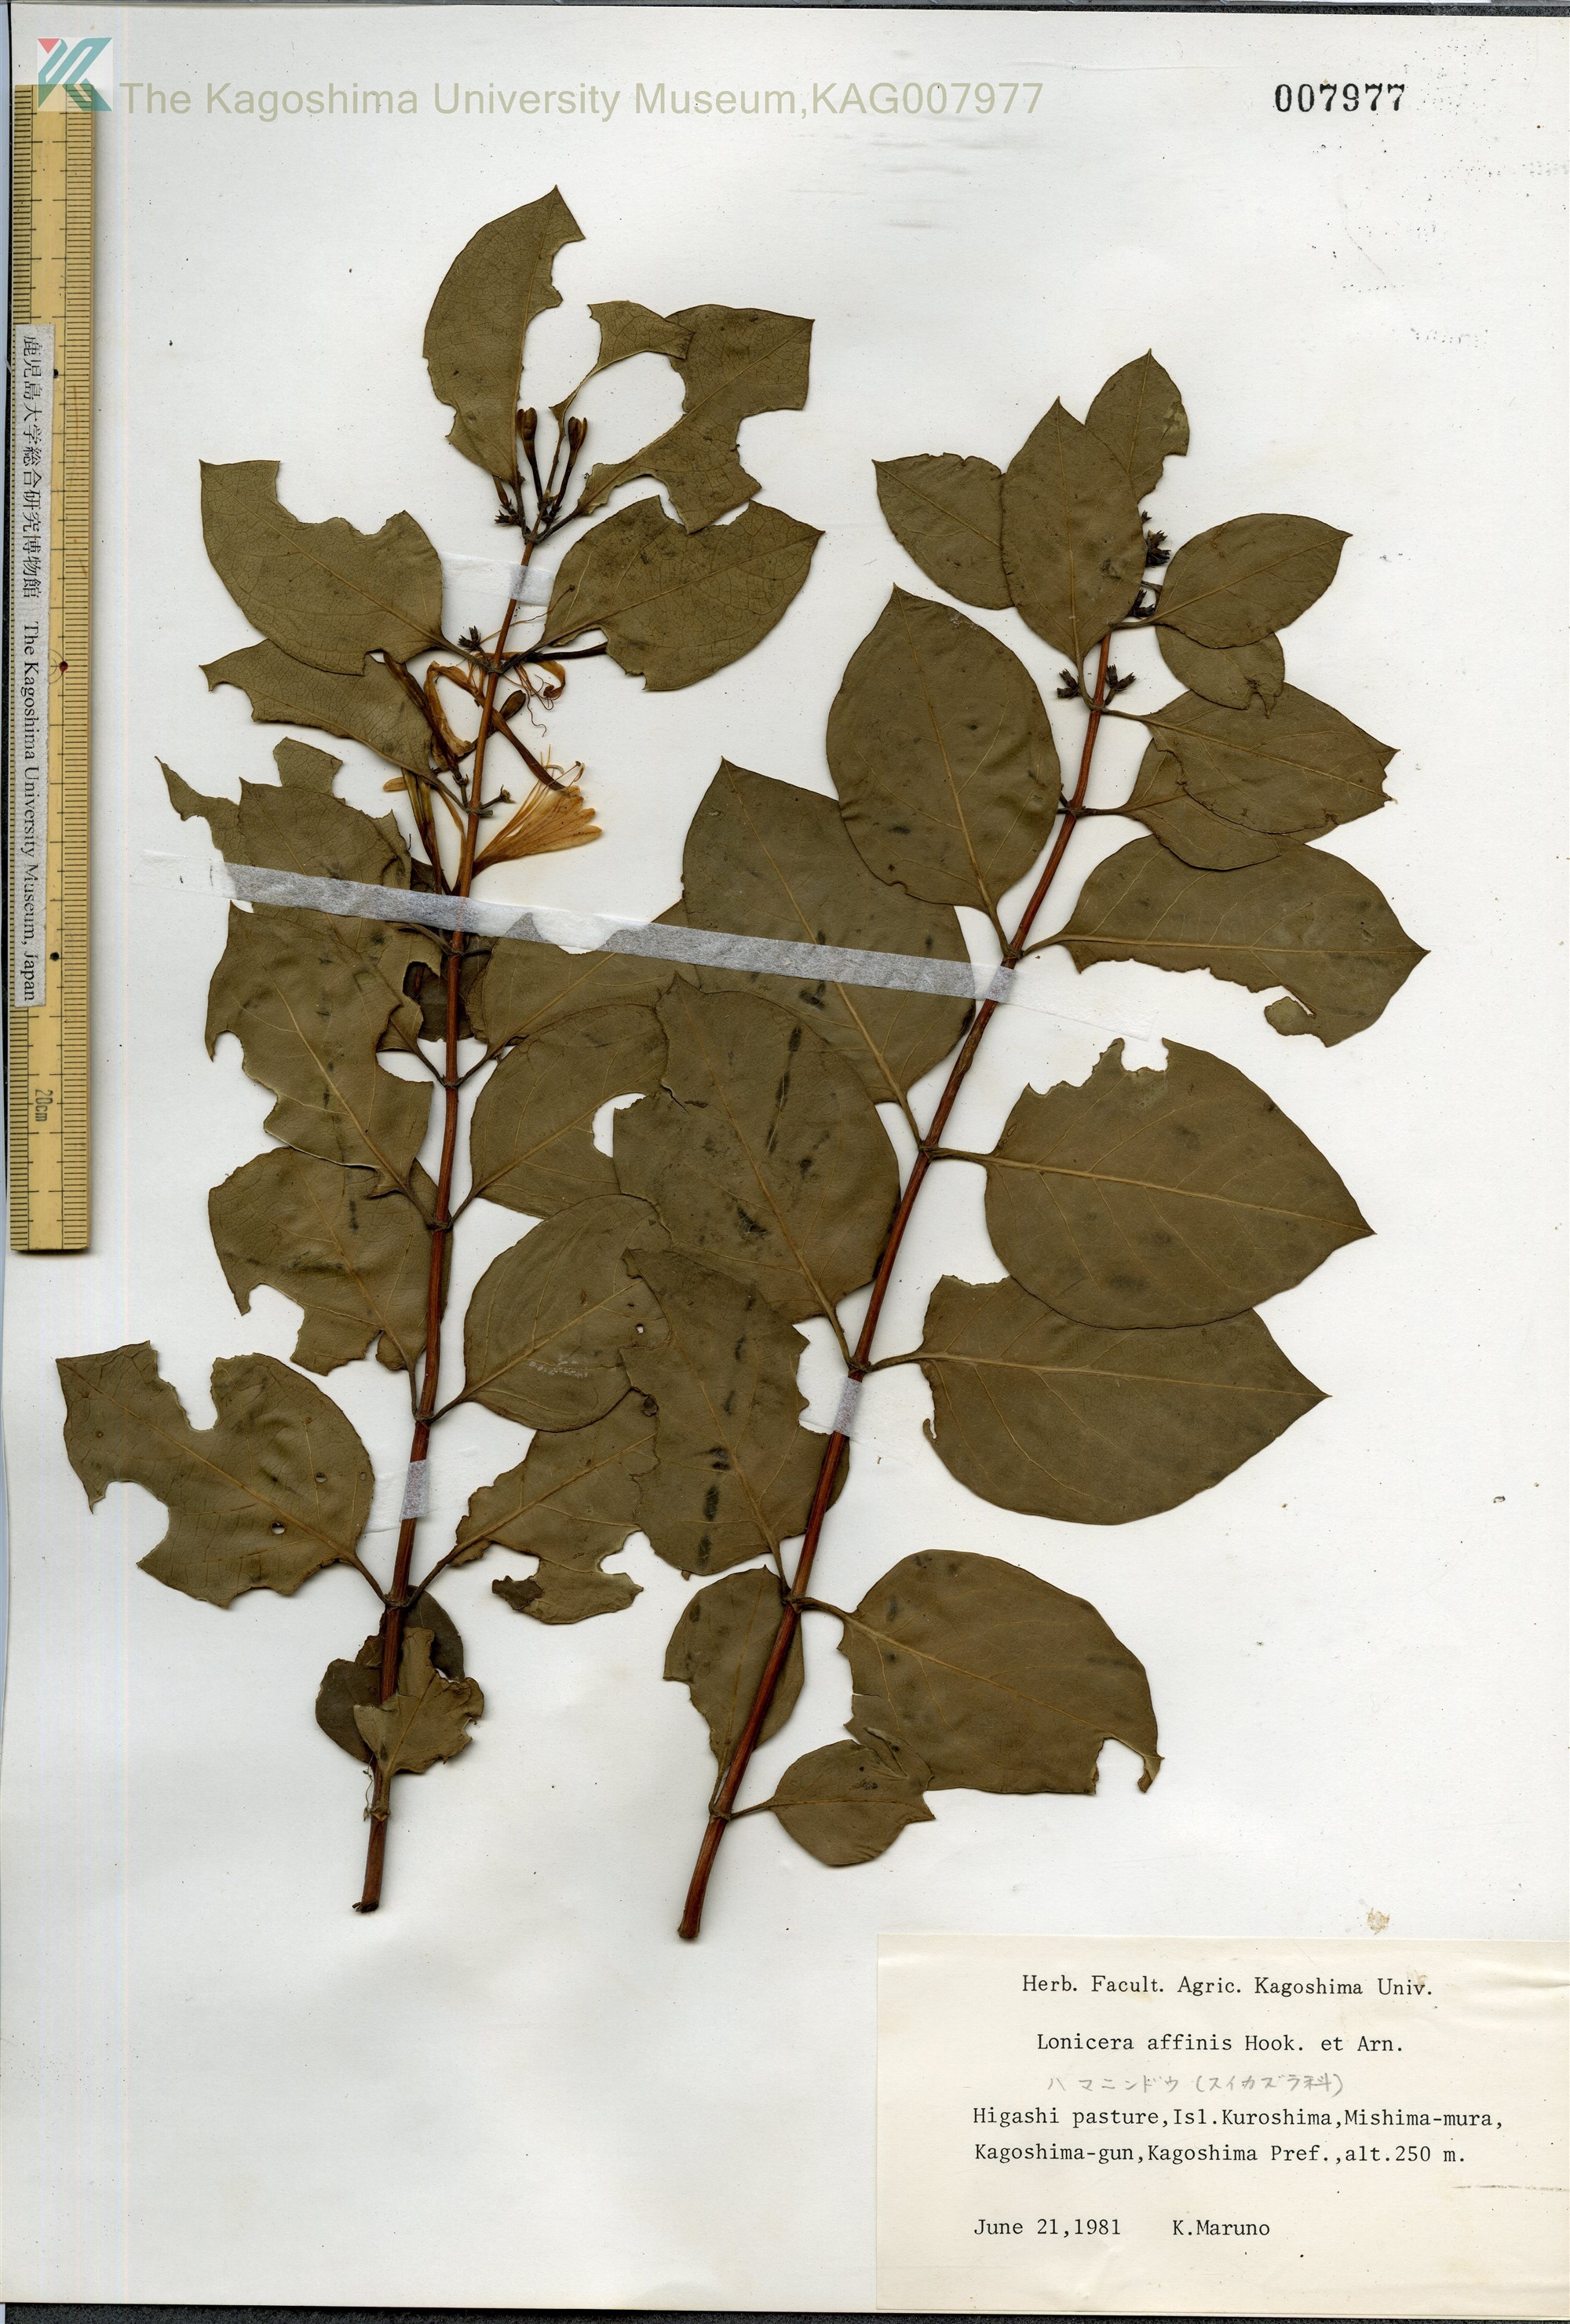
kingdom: Plantae
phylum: Tracheophyta
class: Magnoliopsida
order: Dipsacales
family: Caprifoliaceae
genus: Lonicera
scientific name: Lonicera affinis
